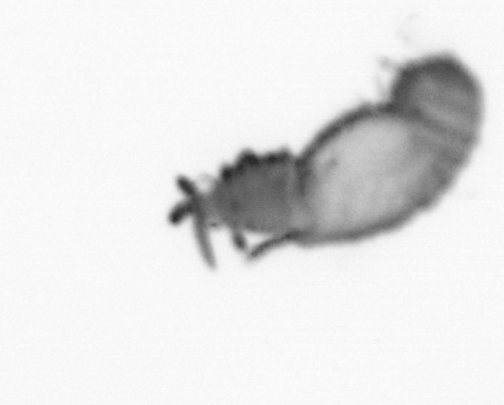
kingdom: Animalia
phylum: Annelida
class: Polychaeta
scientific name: Polychaeta
